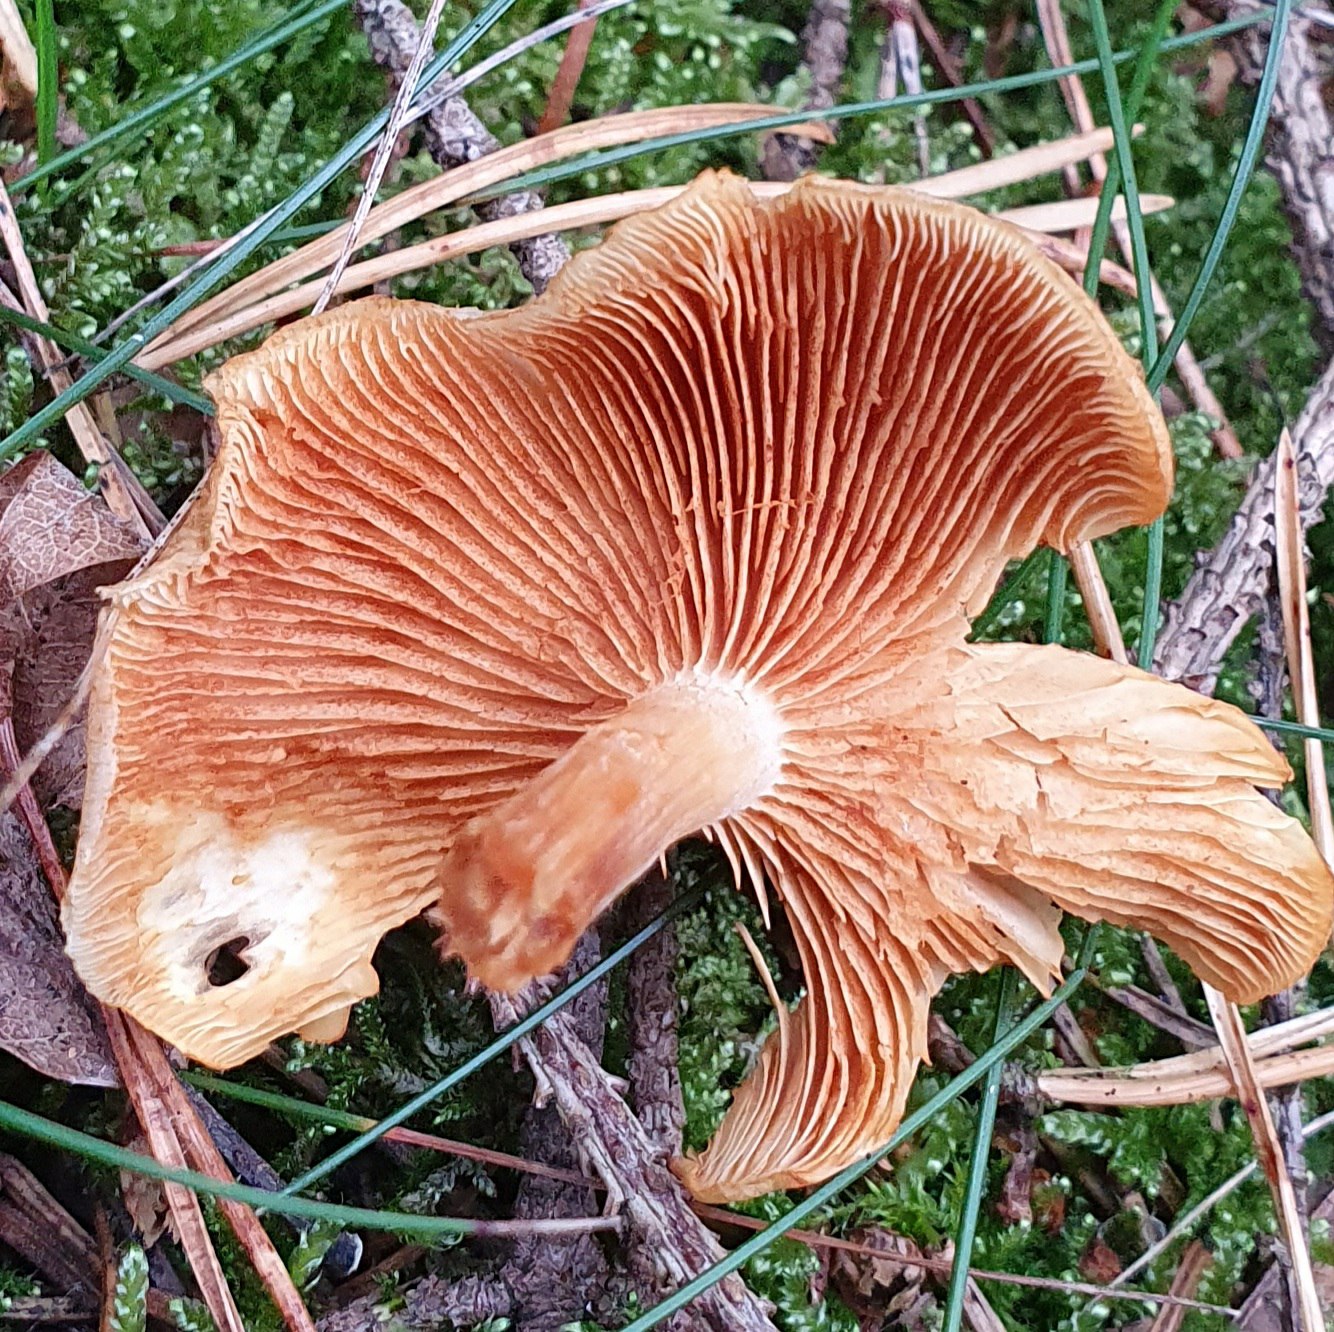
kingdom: Fungi
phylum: Basidiomycota
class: Agaricomycetes
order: Agaricales
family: Hymenogastraceae
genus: Gymnopilus
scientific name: Gymnopilus penetrans
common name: plettet flammehat
